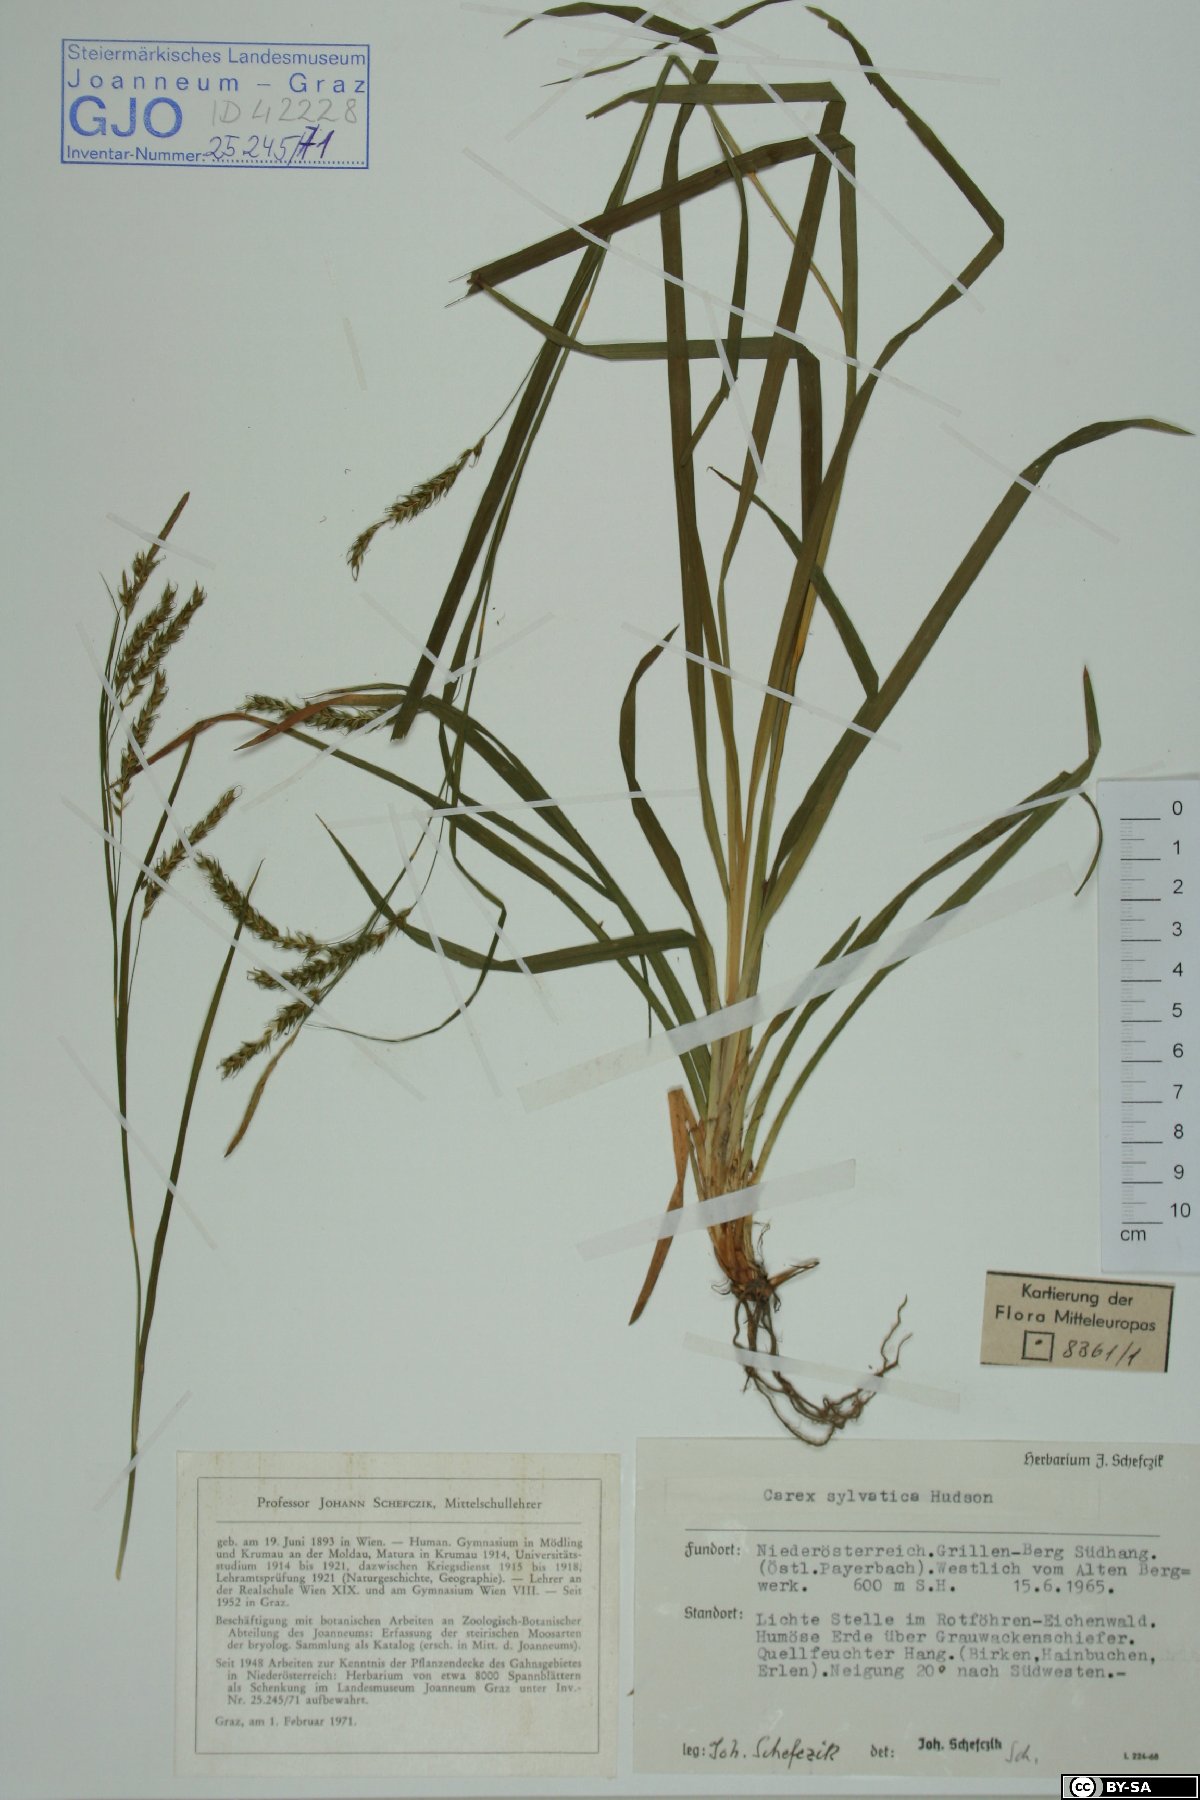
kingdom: Plantae
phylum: Tracheophyta
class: Liliopsida
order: Poales
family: Cyperaceae
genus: Carex
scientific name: Carex sylvatica
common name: Wood-sedge
